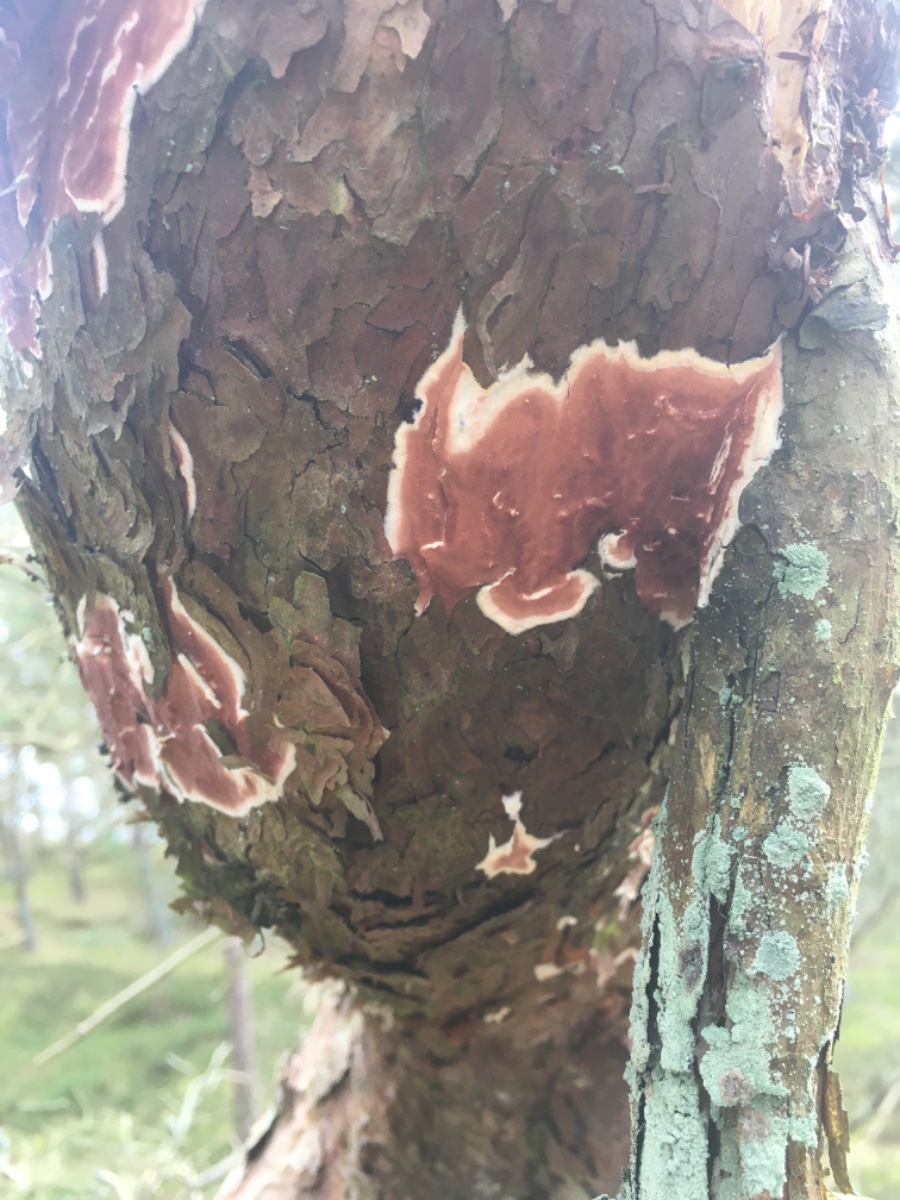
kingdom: Fungi
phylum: Basidiomycota
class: Agaricomycetes
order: Polyporales
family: Irpicaceae
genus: Meruliopsis
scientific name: Meruliopsis taxicola
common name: purpurbrun foldporesvamp
